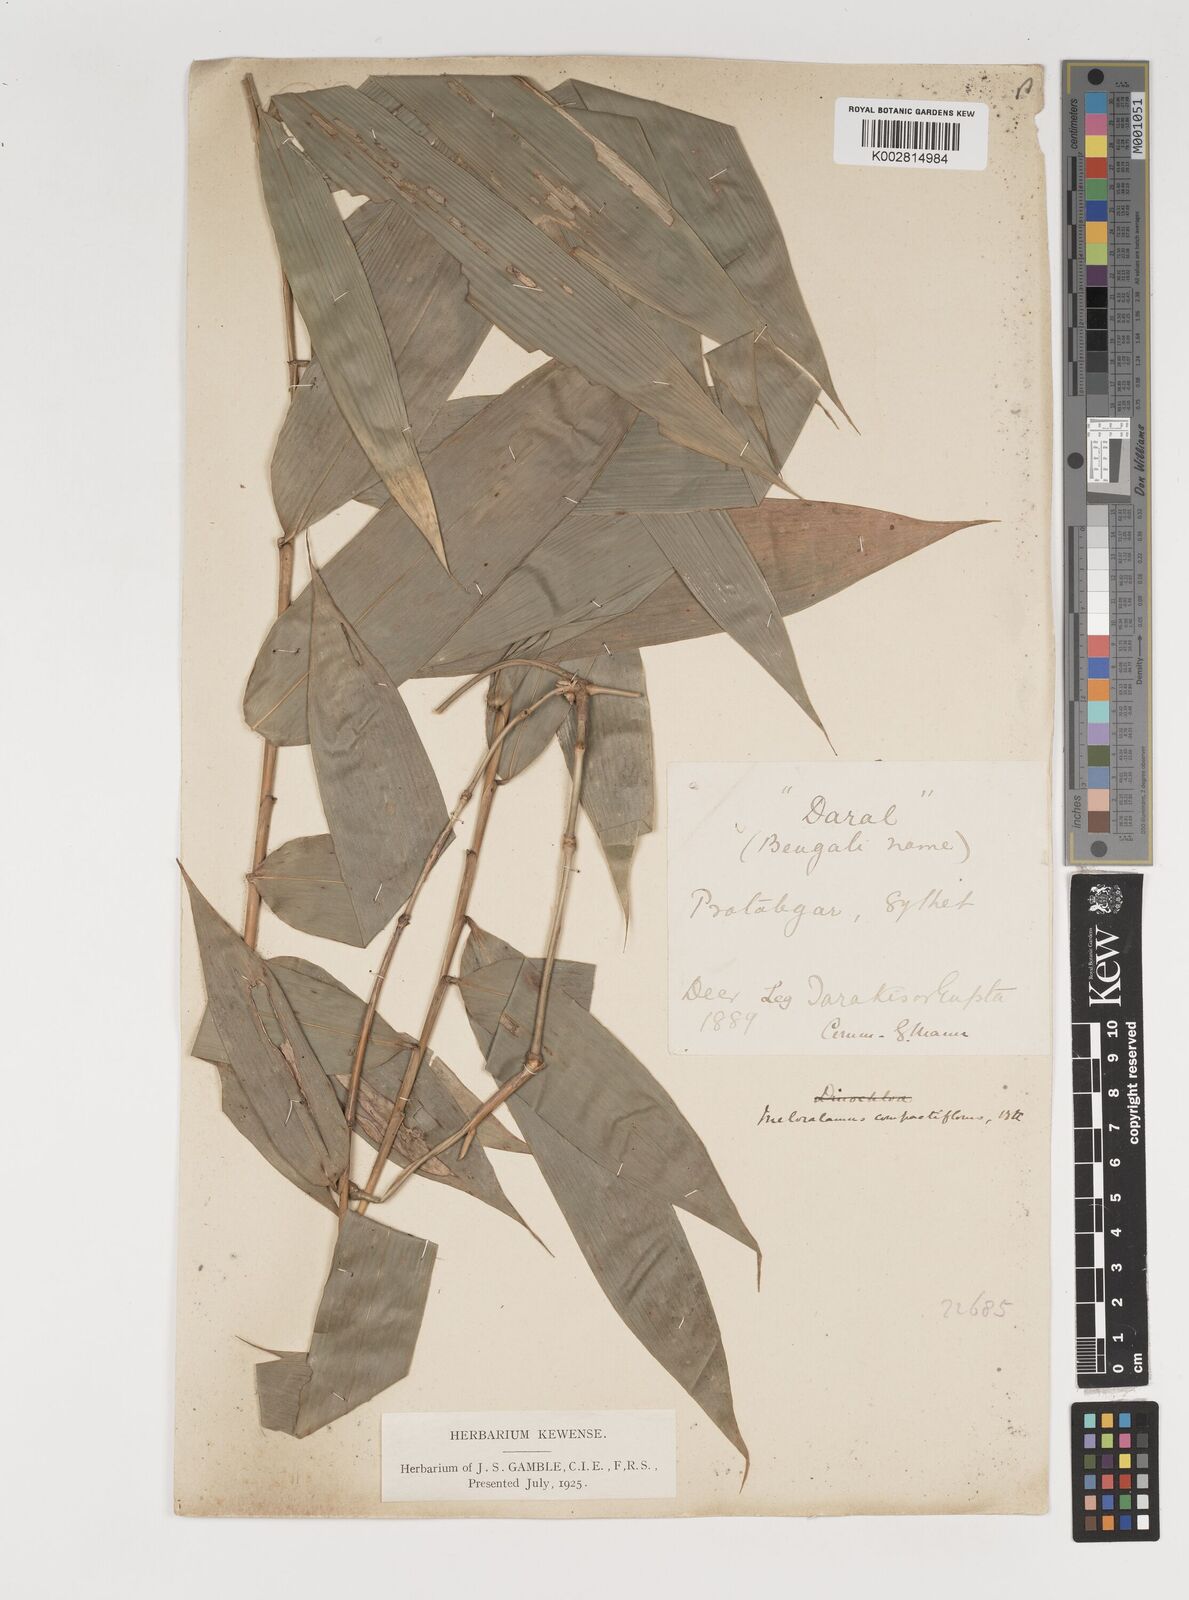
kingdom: Plantae
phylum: Tracheophyta
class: Liliopsida
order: Poales
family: Poaceae
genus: Melocalamus
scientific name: Melocalamus compactiflorus
